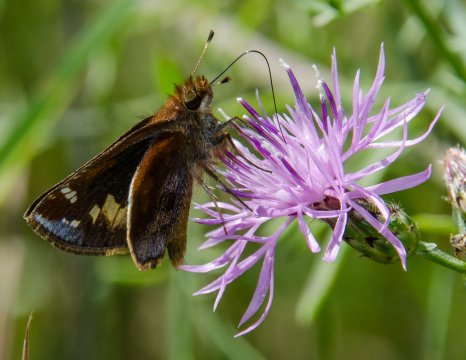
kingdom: Animalia
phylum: Arthropoda
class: Insecta
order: Lepidoptera
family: Hesperiidae
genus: Lon
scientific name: Lon zabulon
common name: Zabulon Skipper
